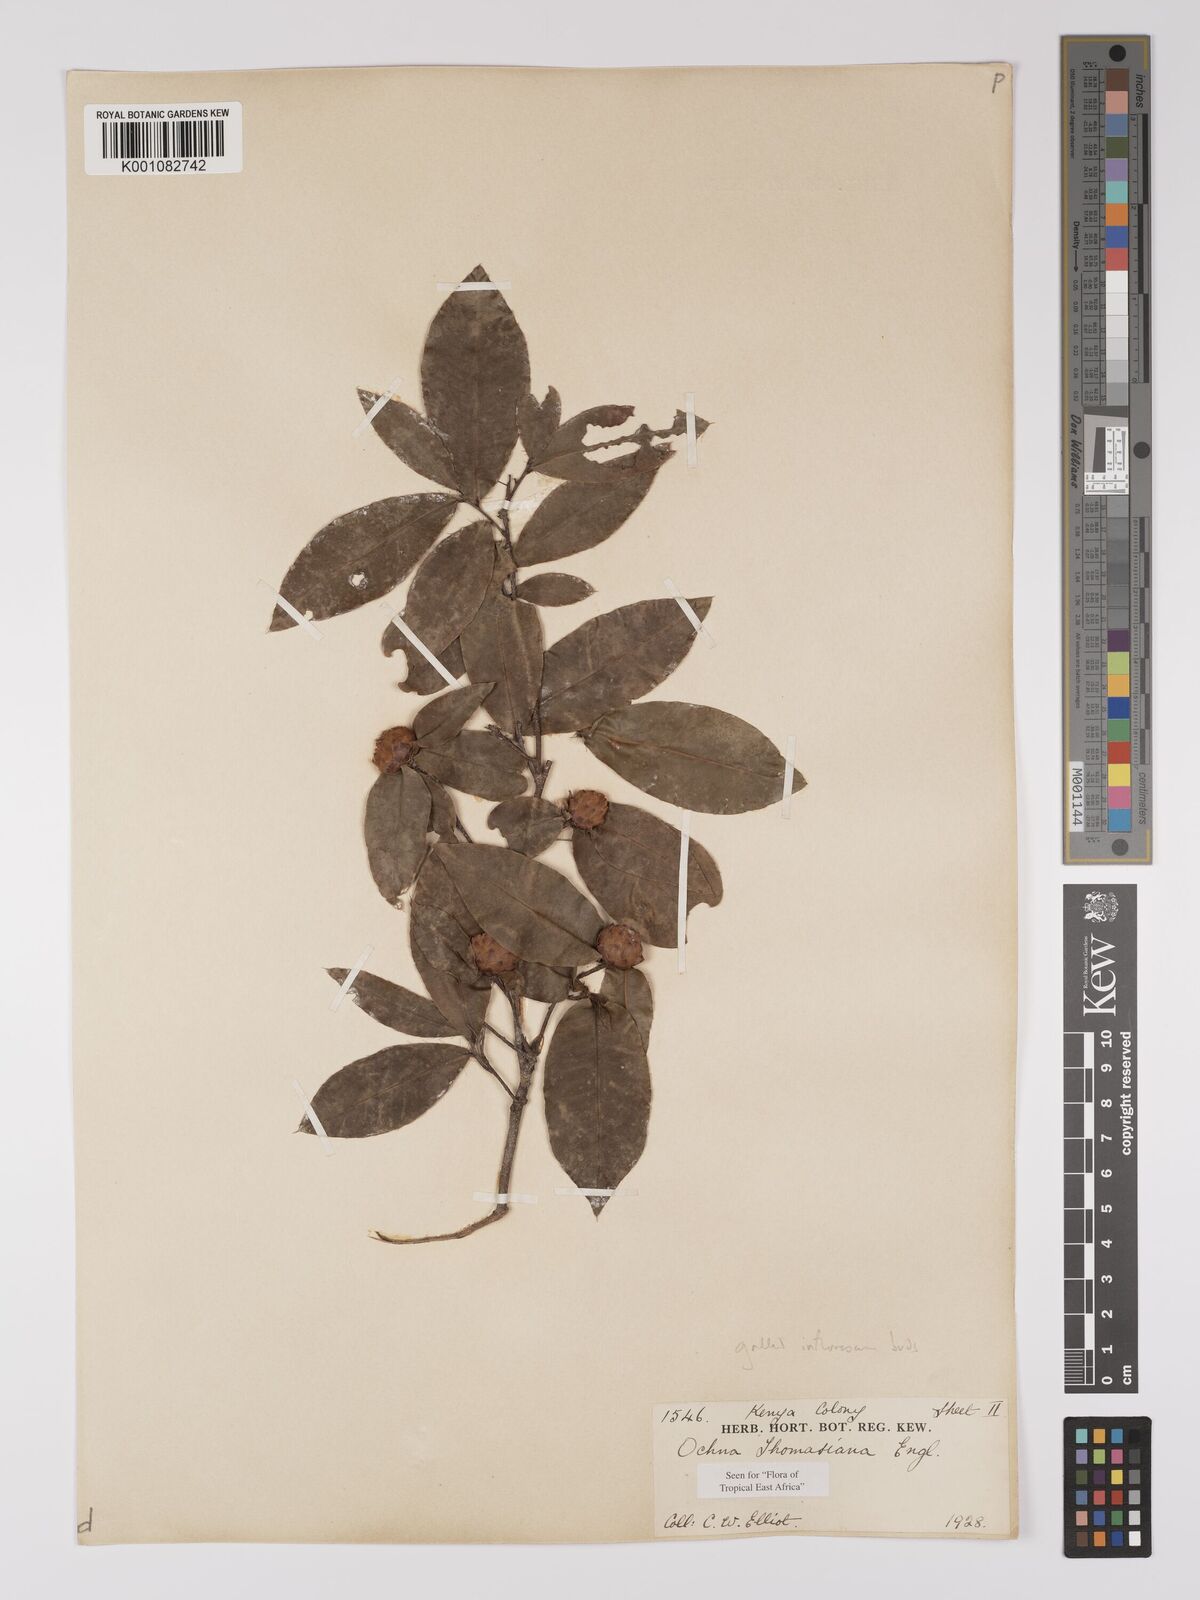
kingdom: Plantae
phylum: Tracheophyta
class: Magnoliopsida
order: Malpighiales
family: Ochnaceae
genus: Ochna
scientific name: Ochna thomasiana
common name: Thomas' bird's-eye bush
